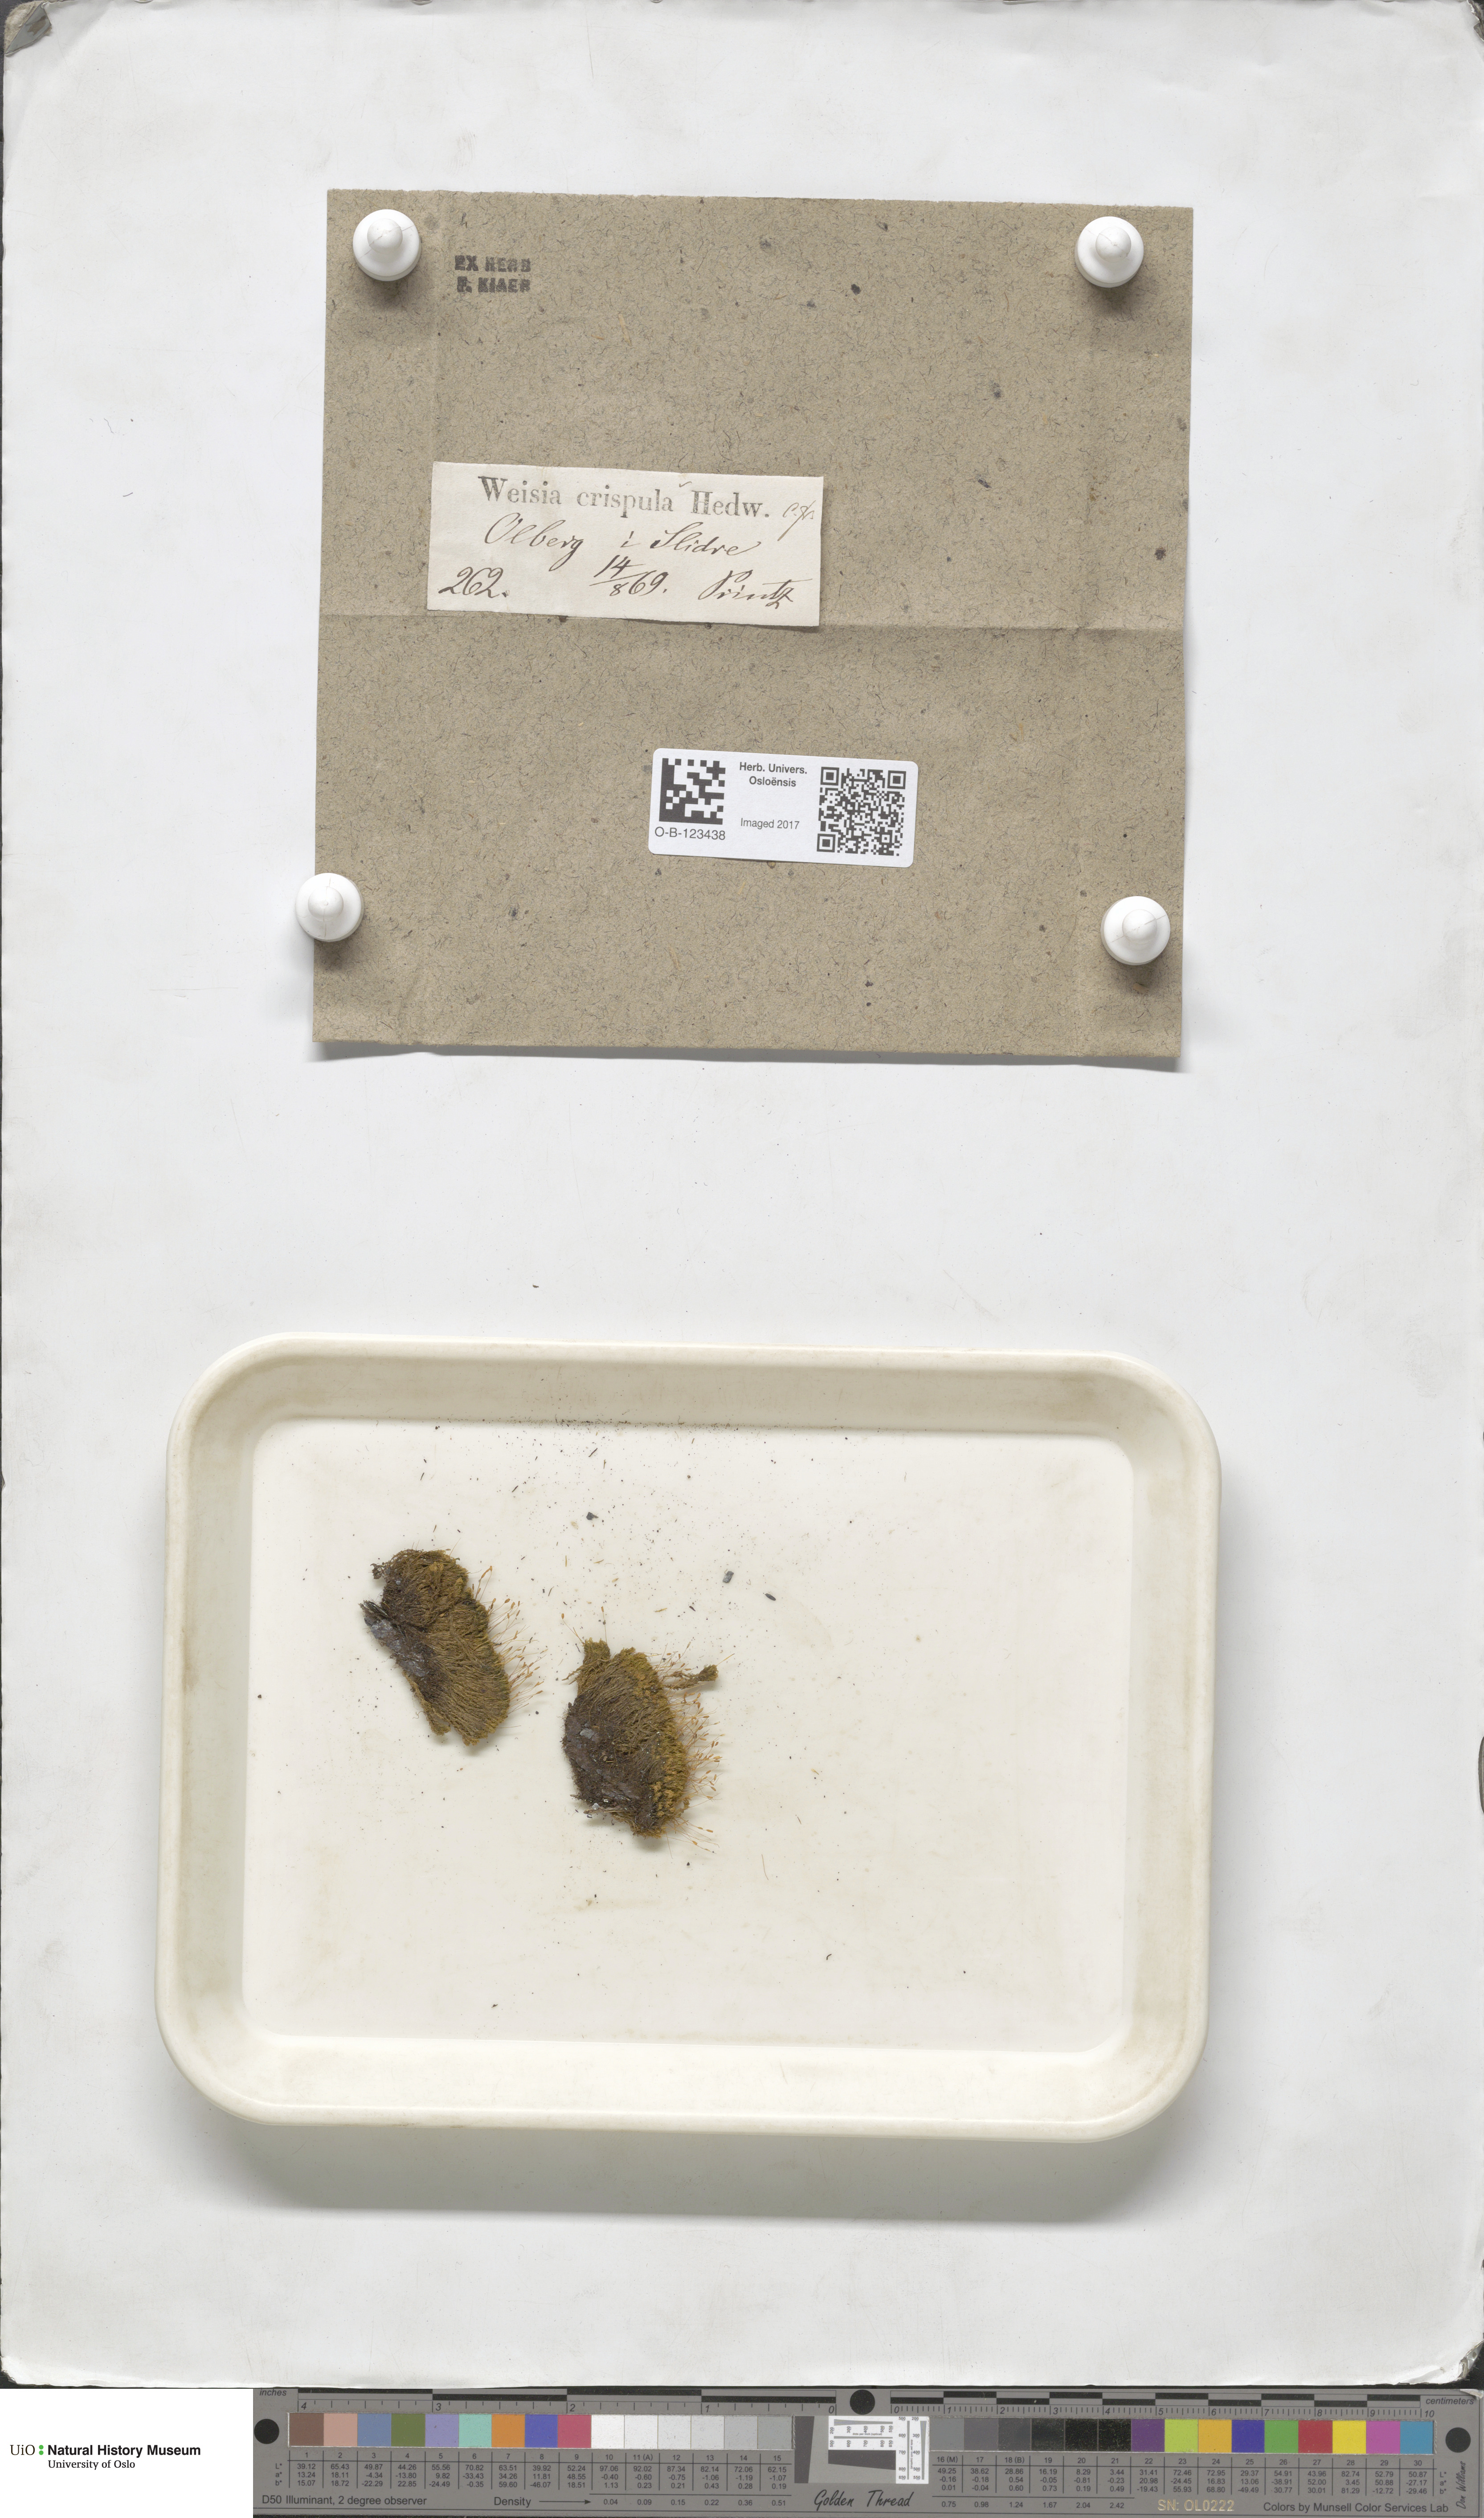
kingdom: Plantae
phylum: Bryophyta
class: Bryopsida
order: Scouleriales
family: Hymenolomataceae
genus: Hymenoloma
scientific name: Hymenoloma crispulum
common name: Mountain pincushion
